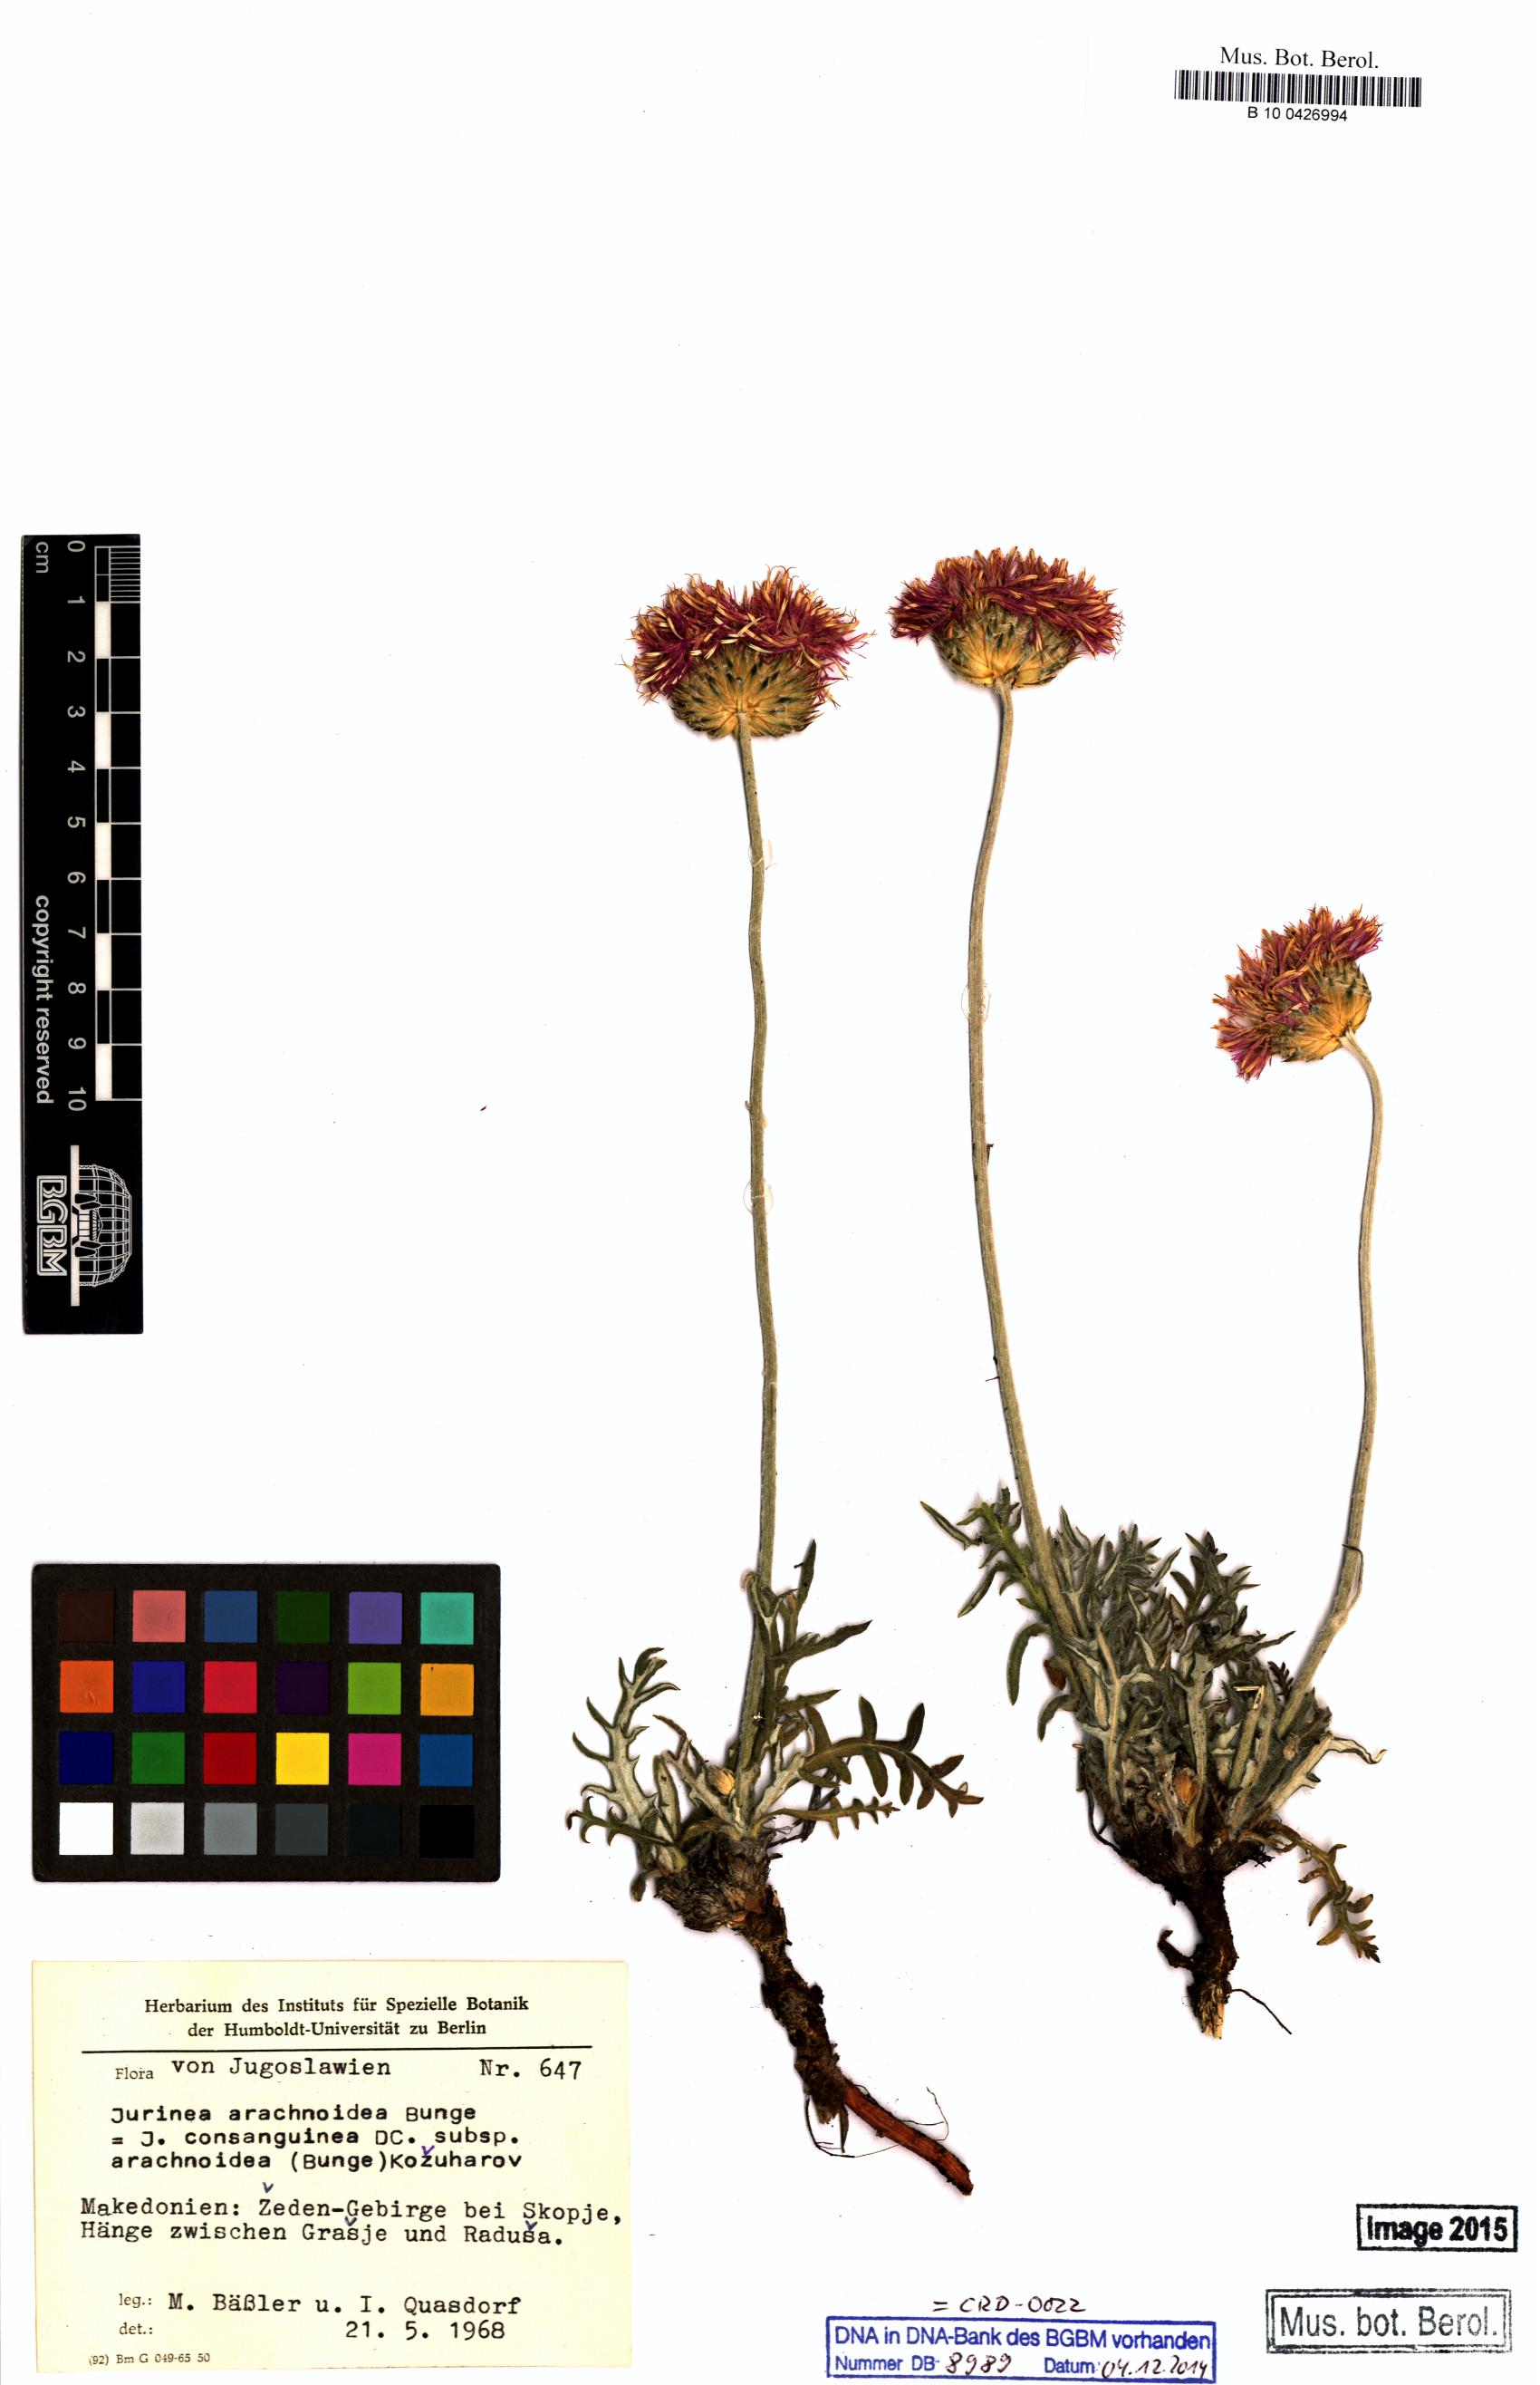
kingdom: Plantae
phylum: Tracheophyta
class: Magnoliopsida
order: Asterales
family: Asteraceae
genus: Jurinea
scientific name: Jurinea arachnoidea
